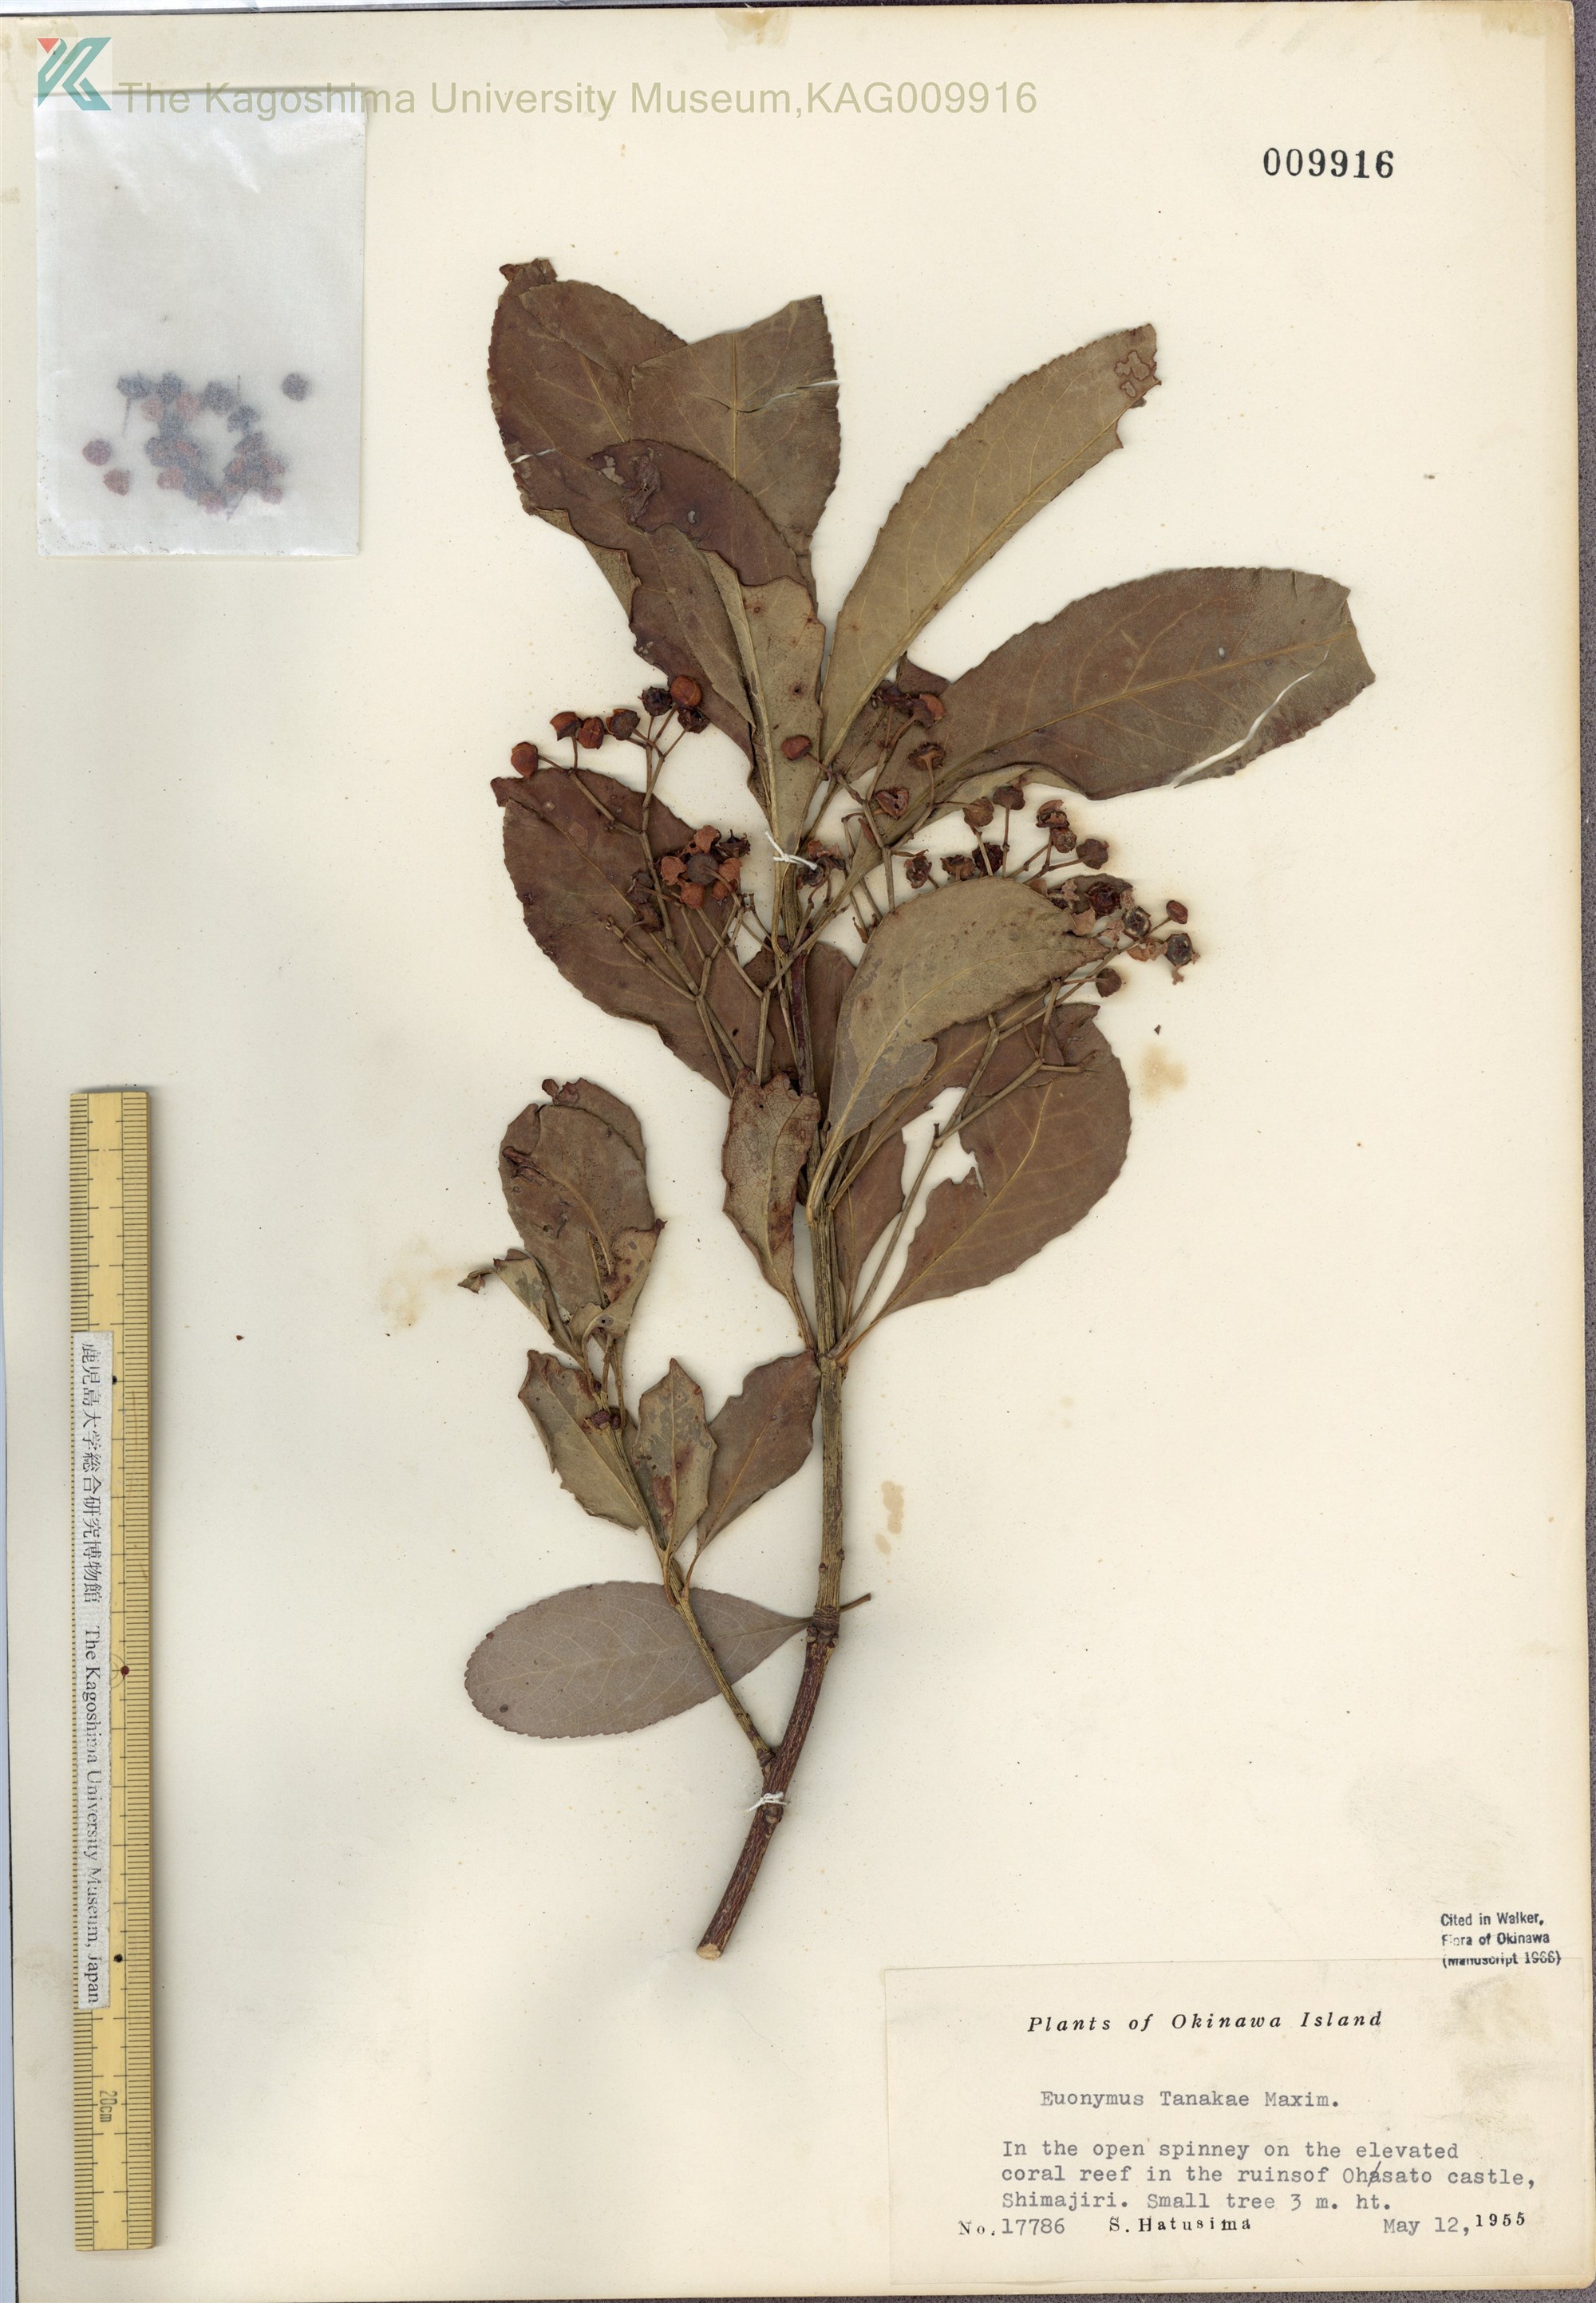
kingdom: Plantae
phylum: Tracheophyta
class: Magnoliopsida
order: Celastrales
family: Celastraceae
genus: Euonymus
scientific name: Euonymus carnosus
